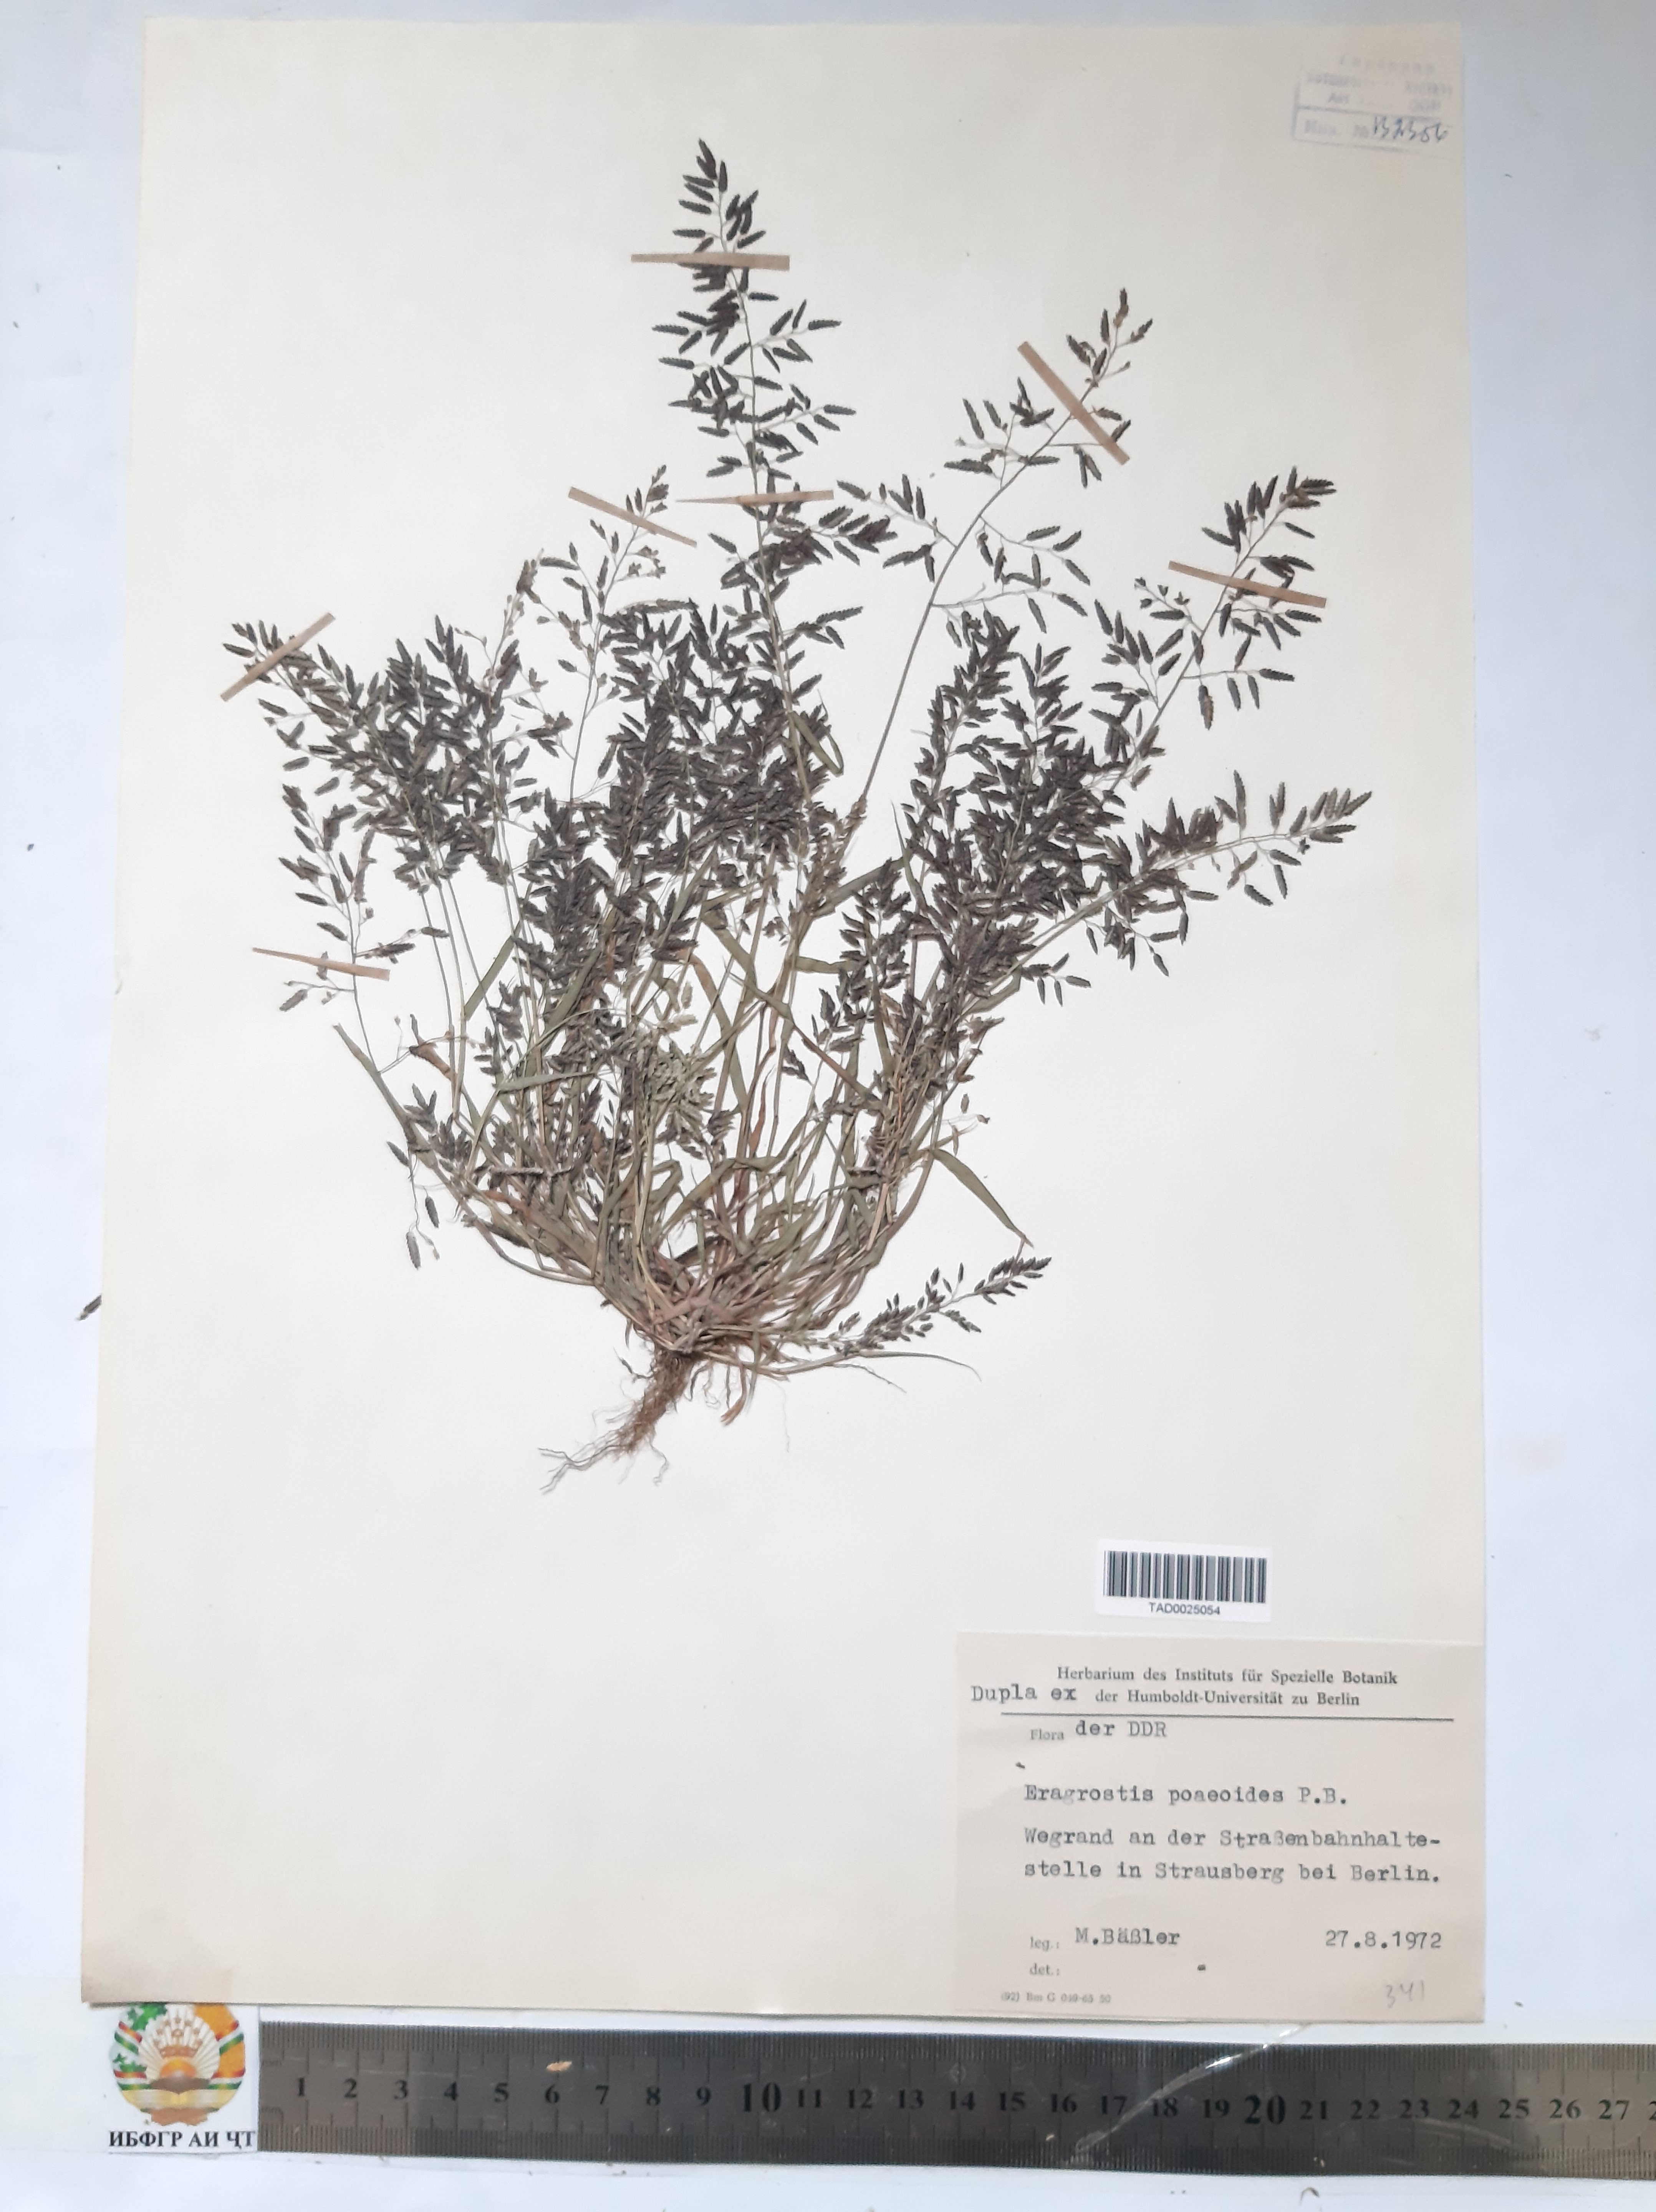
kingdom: Plantae
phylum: Tracheophyta
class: Liliopsida
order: Poales
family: Poaceae
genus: Eragrostis
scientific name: Eragrostis minor
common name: Small love-grass
